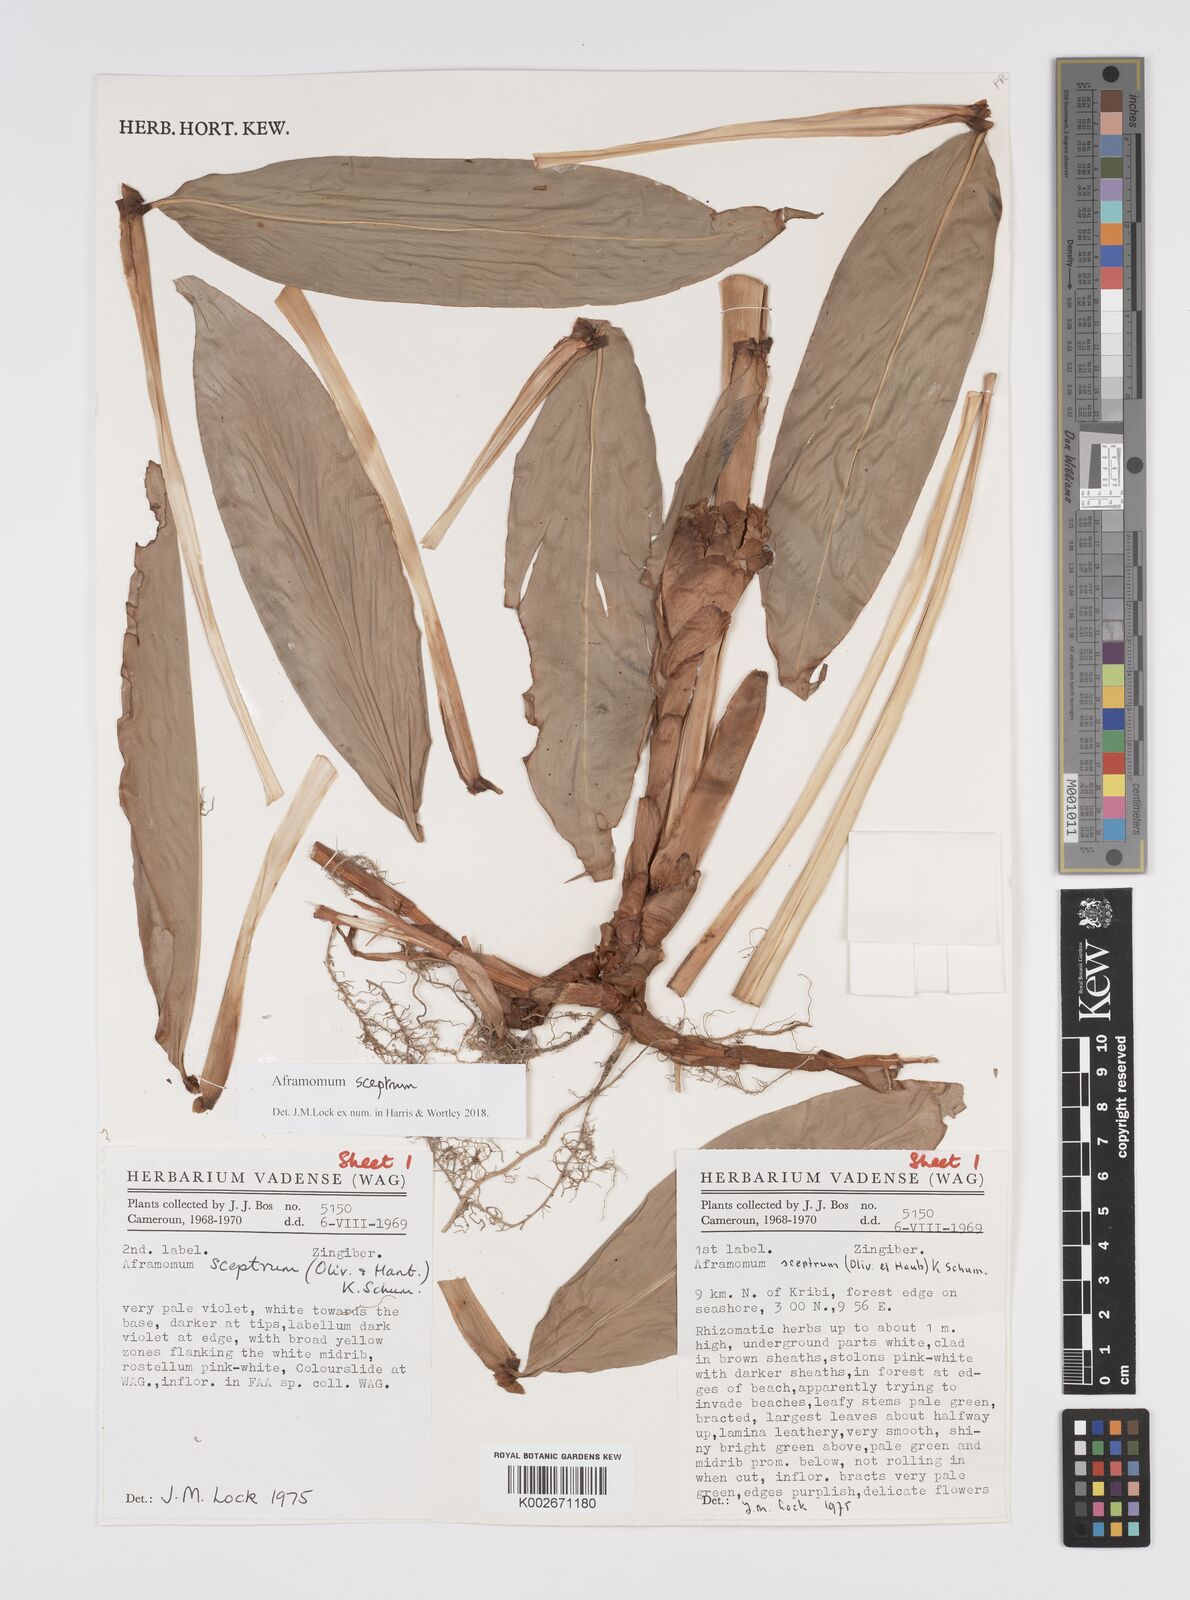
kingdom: Plantae
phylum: Tracheophyta
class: Liliopsida
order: Zingiberales
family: Zingiberaceae
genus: Aframomum
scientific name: Aframomum cereum
